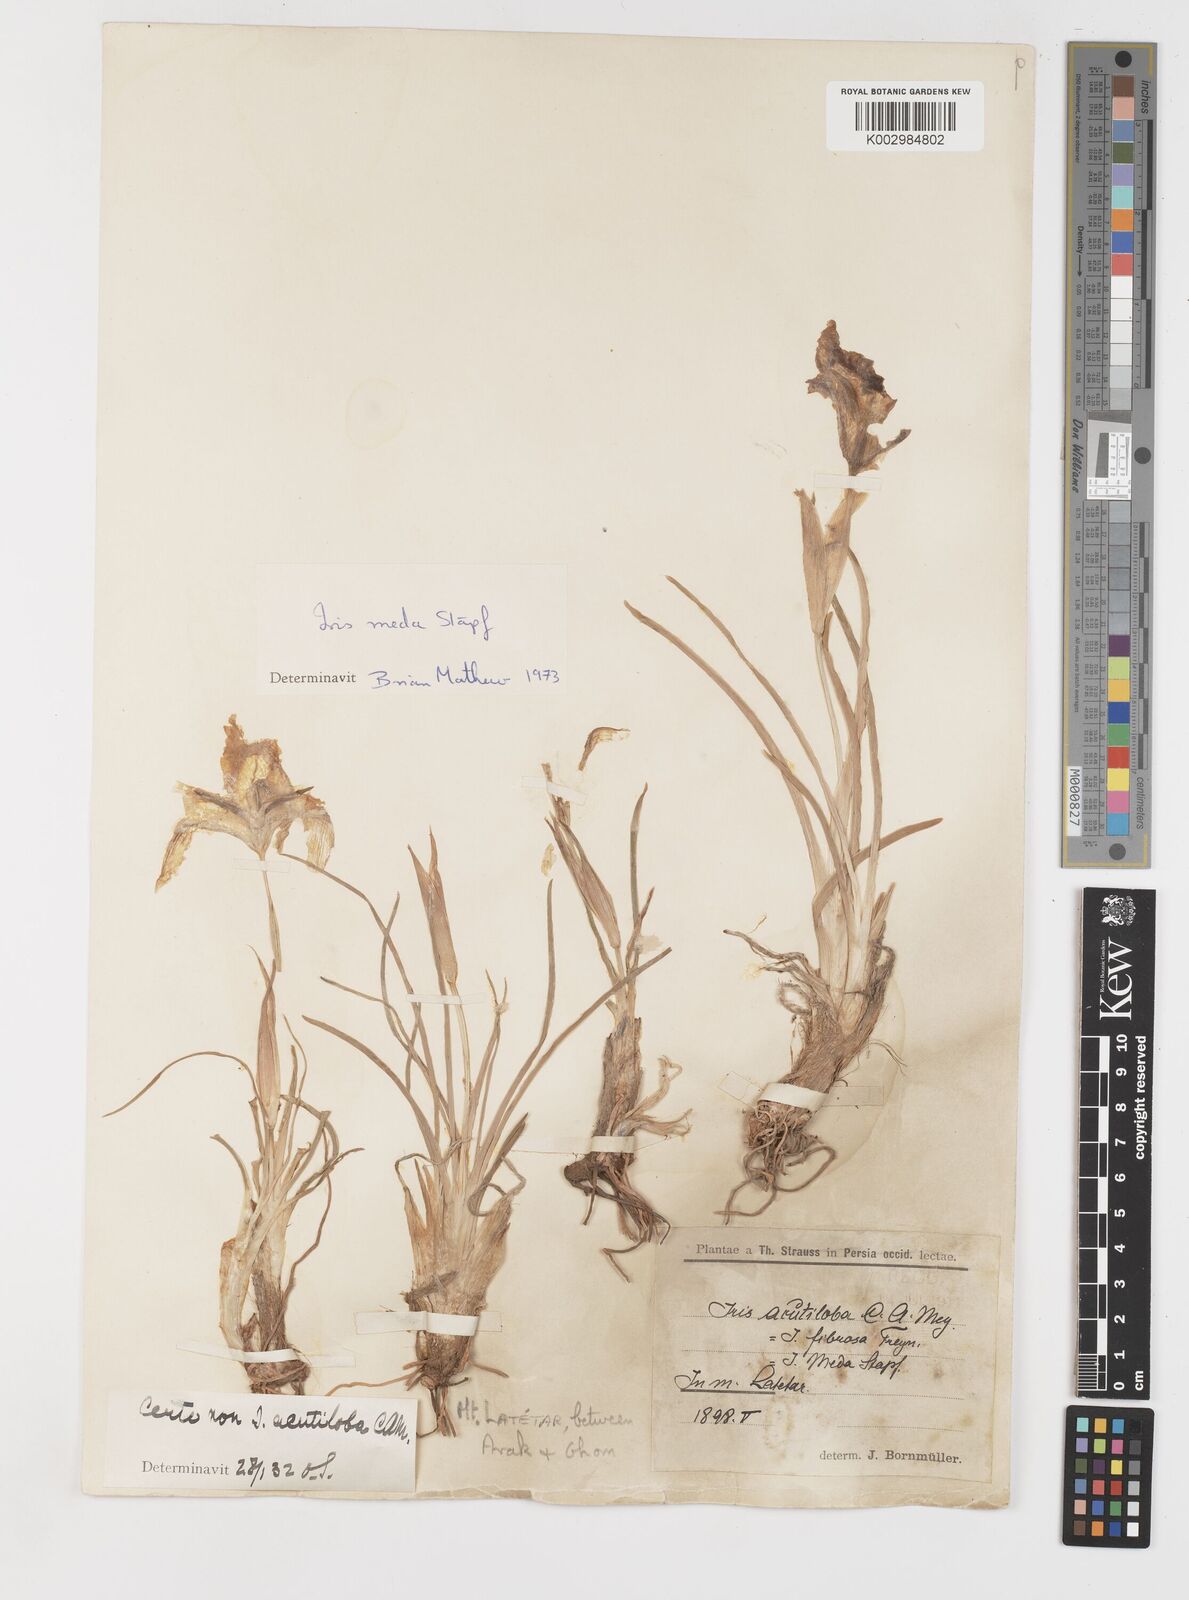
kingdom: Plantae
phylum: Tracheophyta
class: Liliopsida
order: Asparagales
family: Iridaceae
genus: Iris
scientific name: Iris meda
